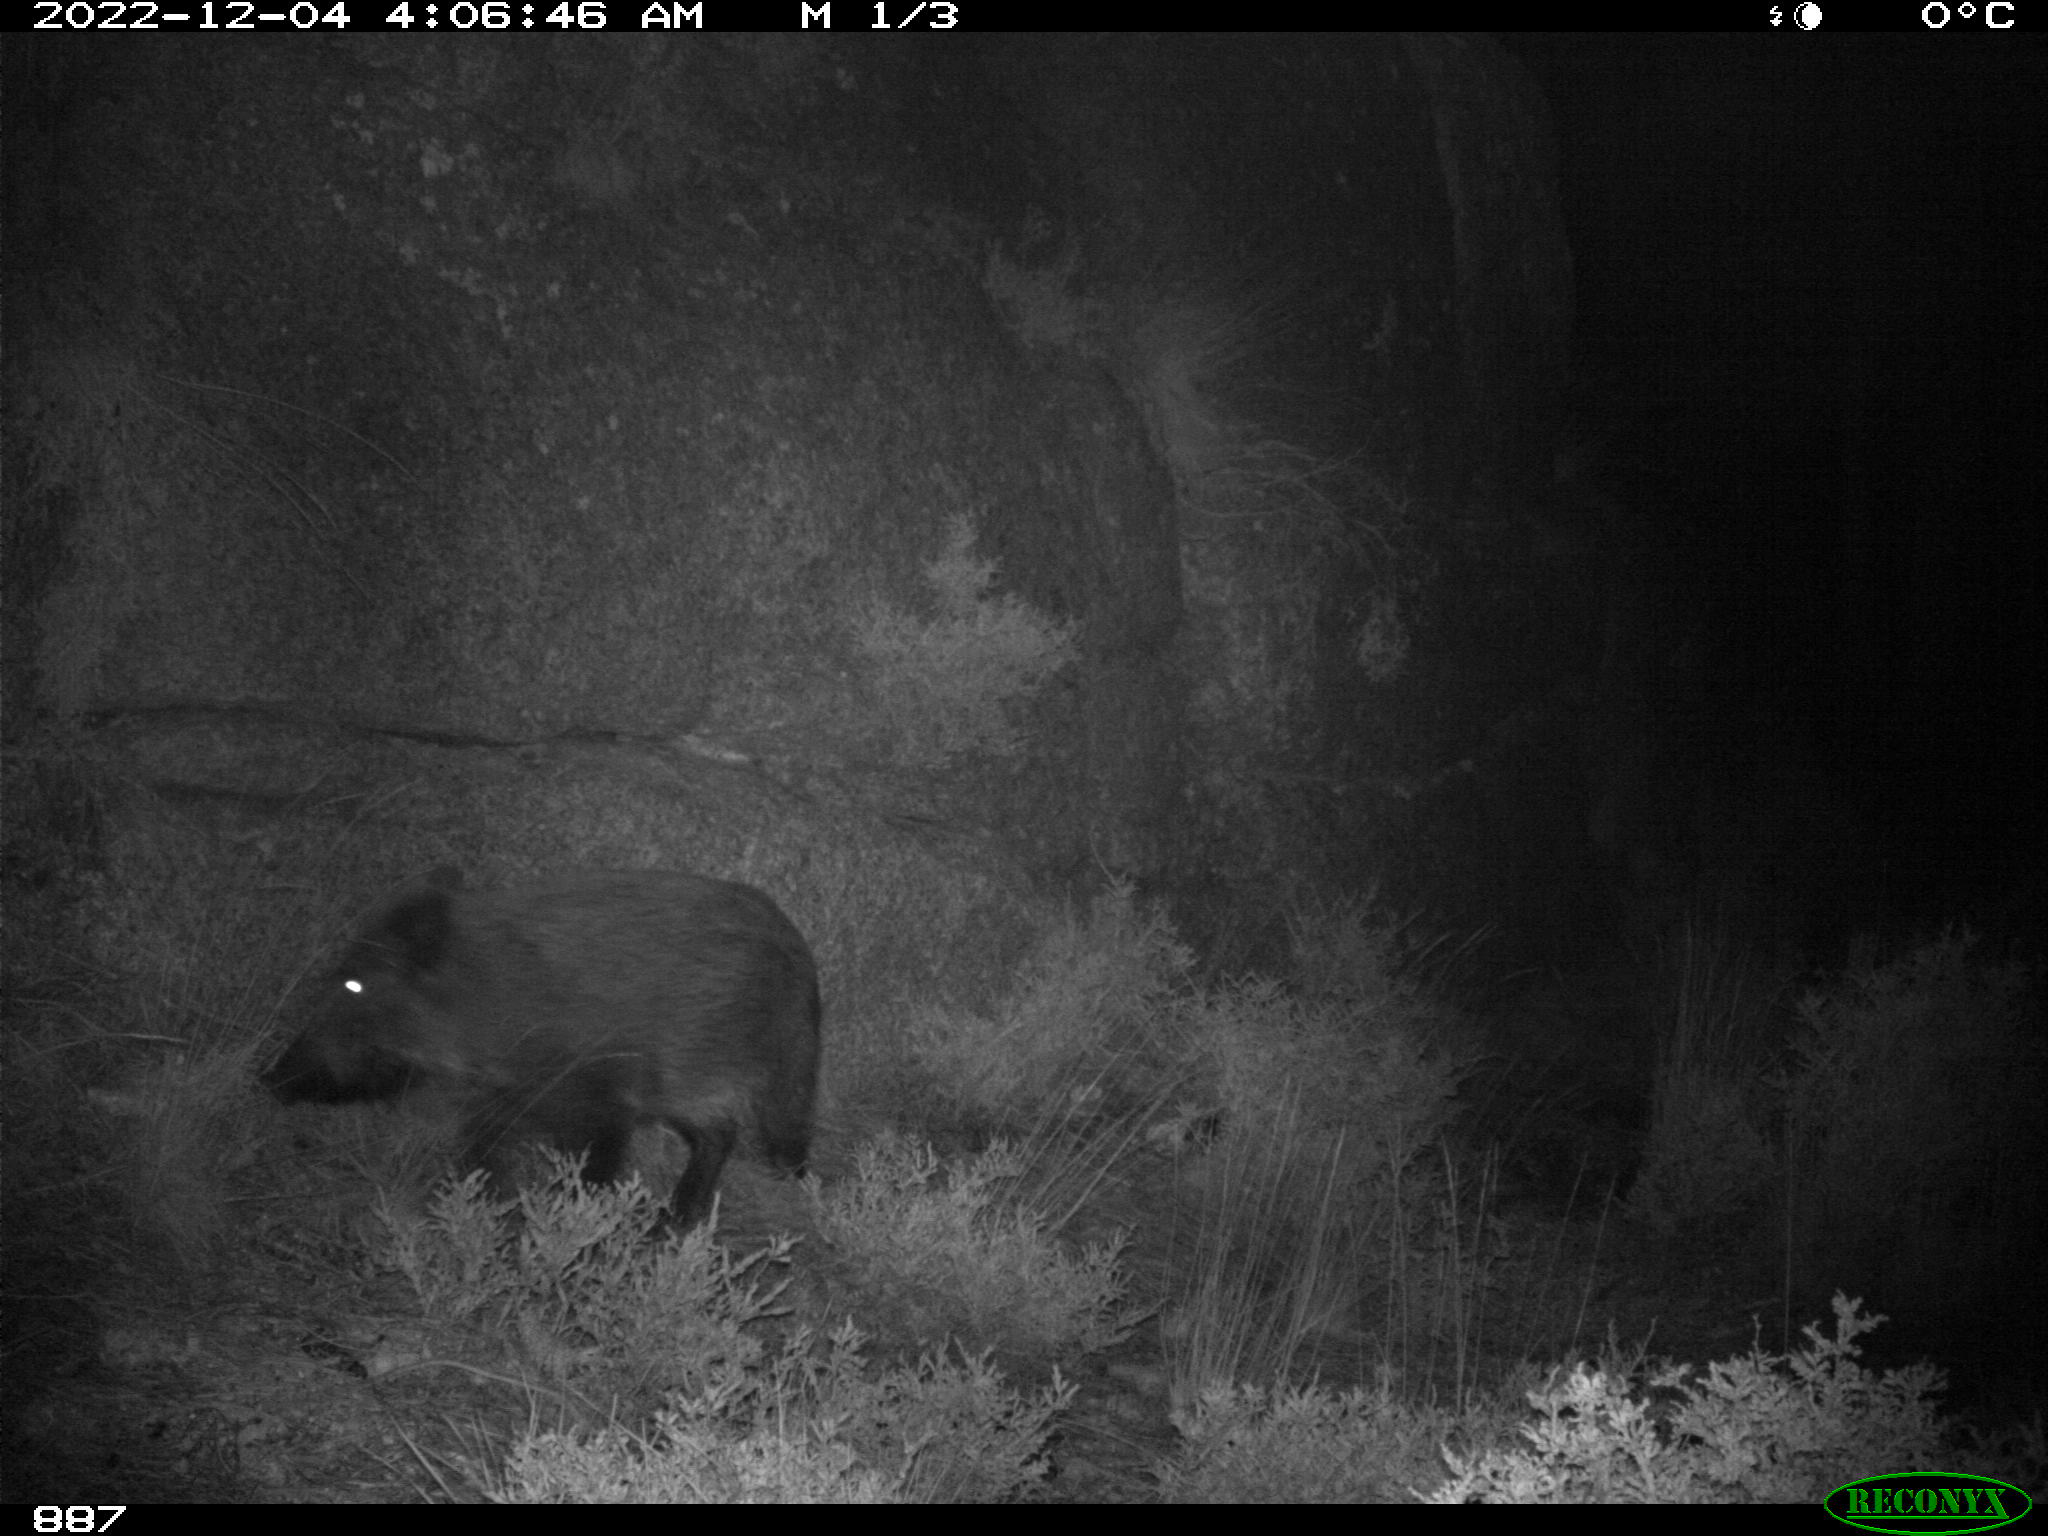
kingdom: Animalia
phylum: Chordata
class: Mammalia
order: Artiodactyla
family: Suidae
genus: Sus
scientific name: Sus scrofa
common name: Wild boar
